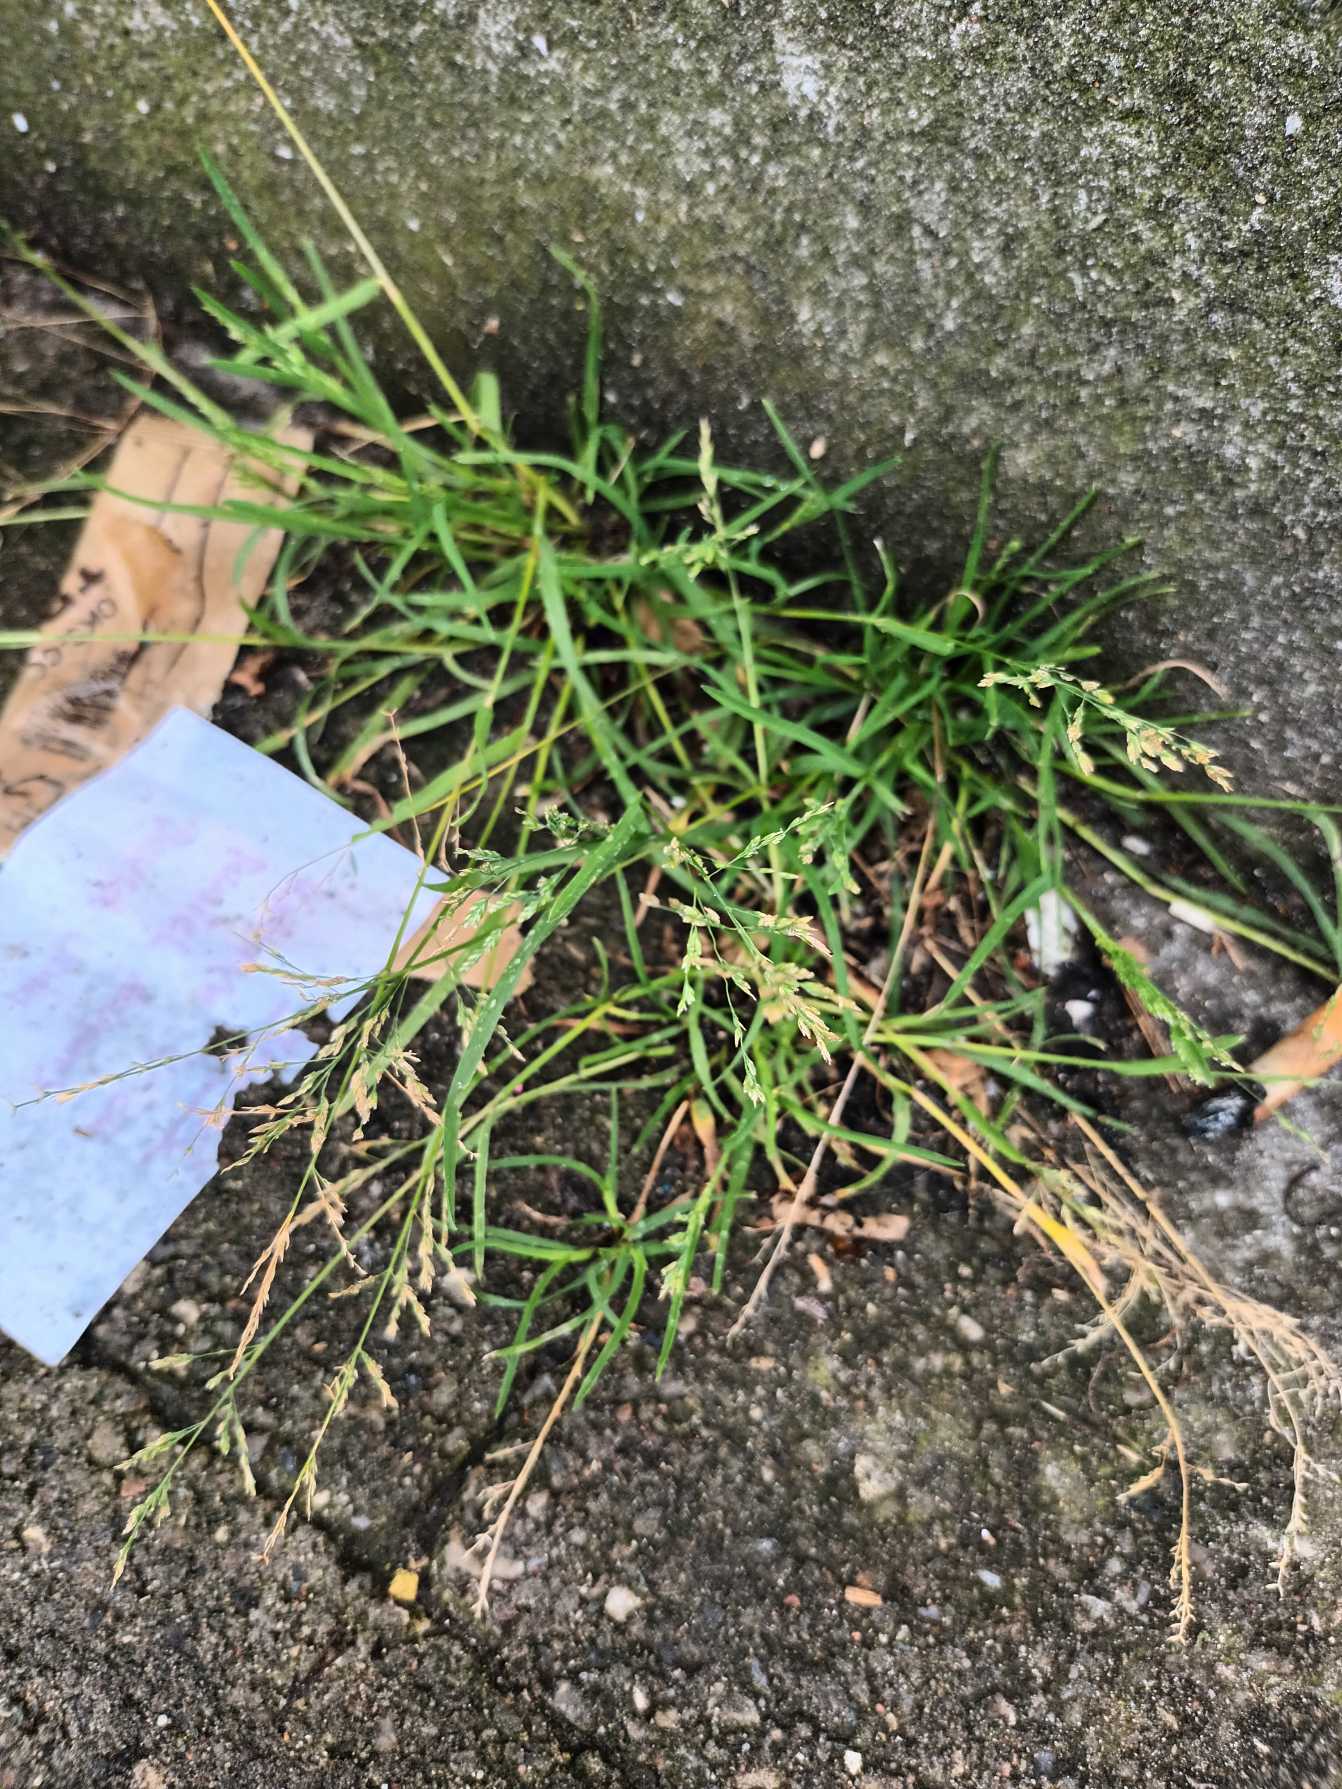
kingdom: Plantae
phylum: Tracheophyta
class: Liliopsida
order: Poales
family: Poaceae
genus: Poa
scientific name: Poa annua
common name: Enårig rapgræs
